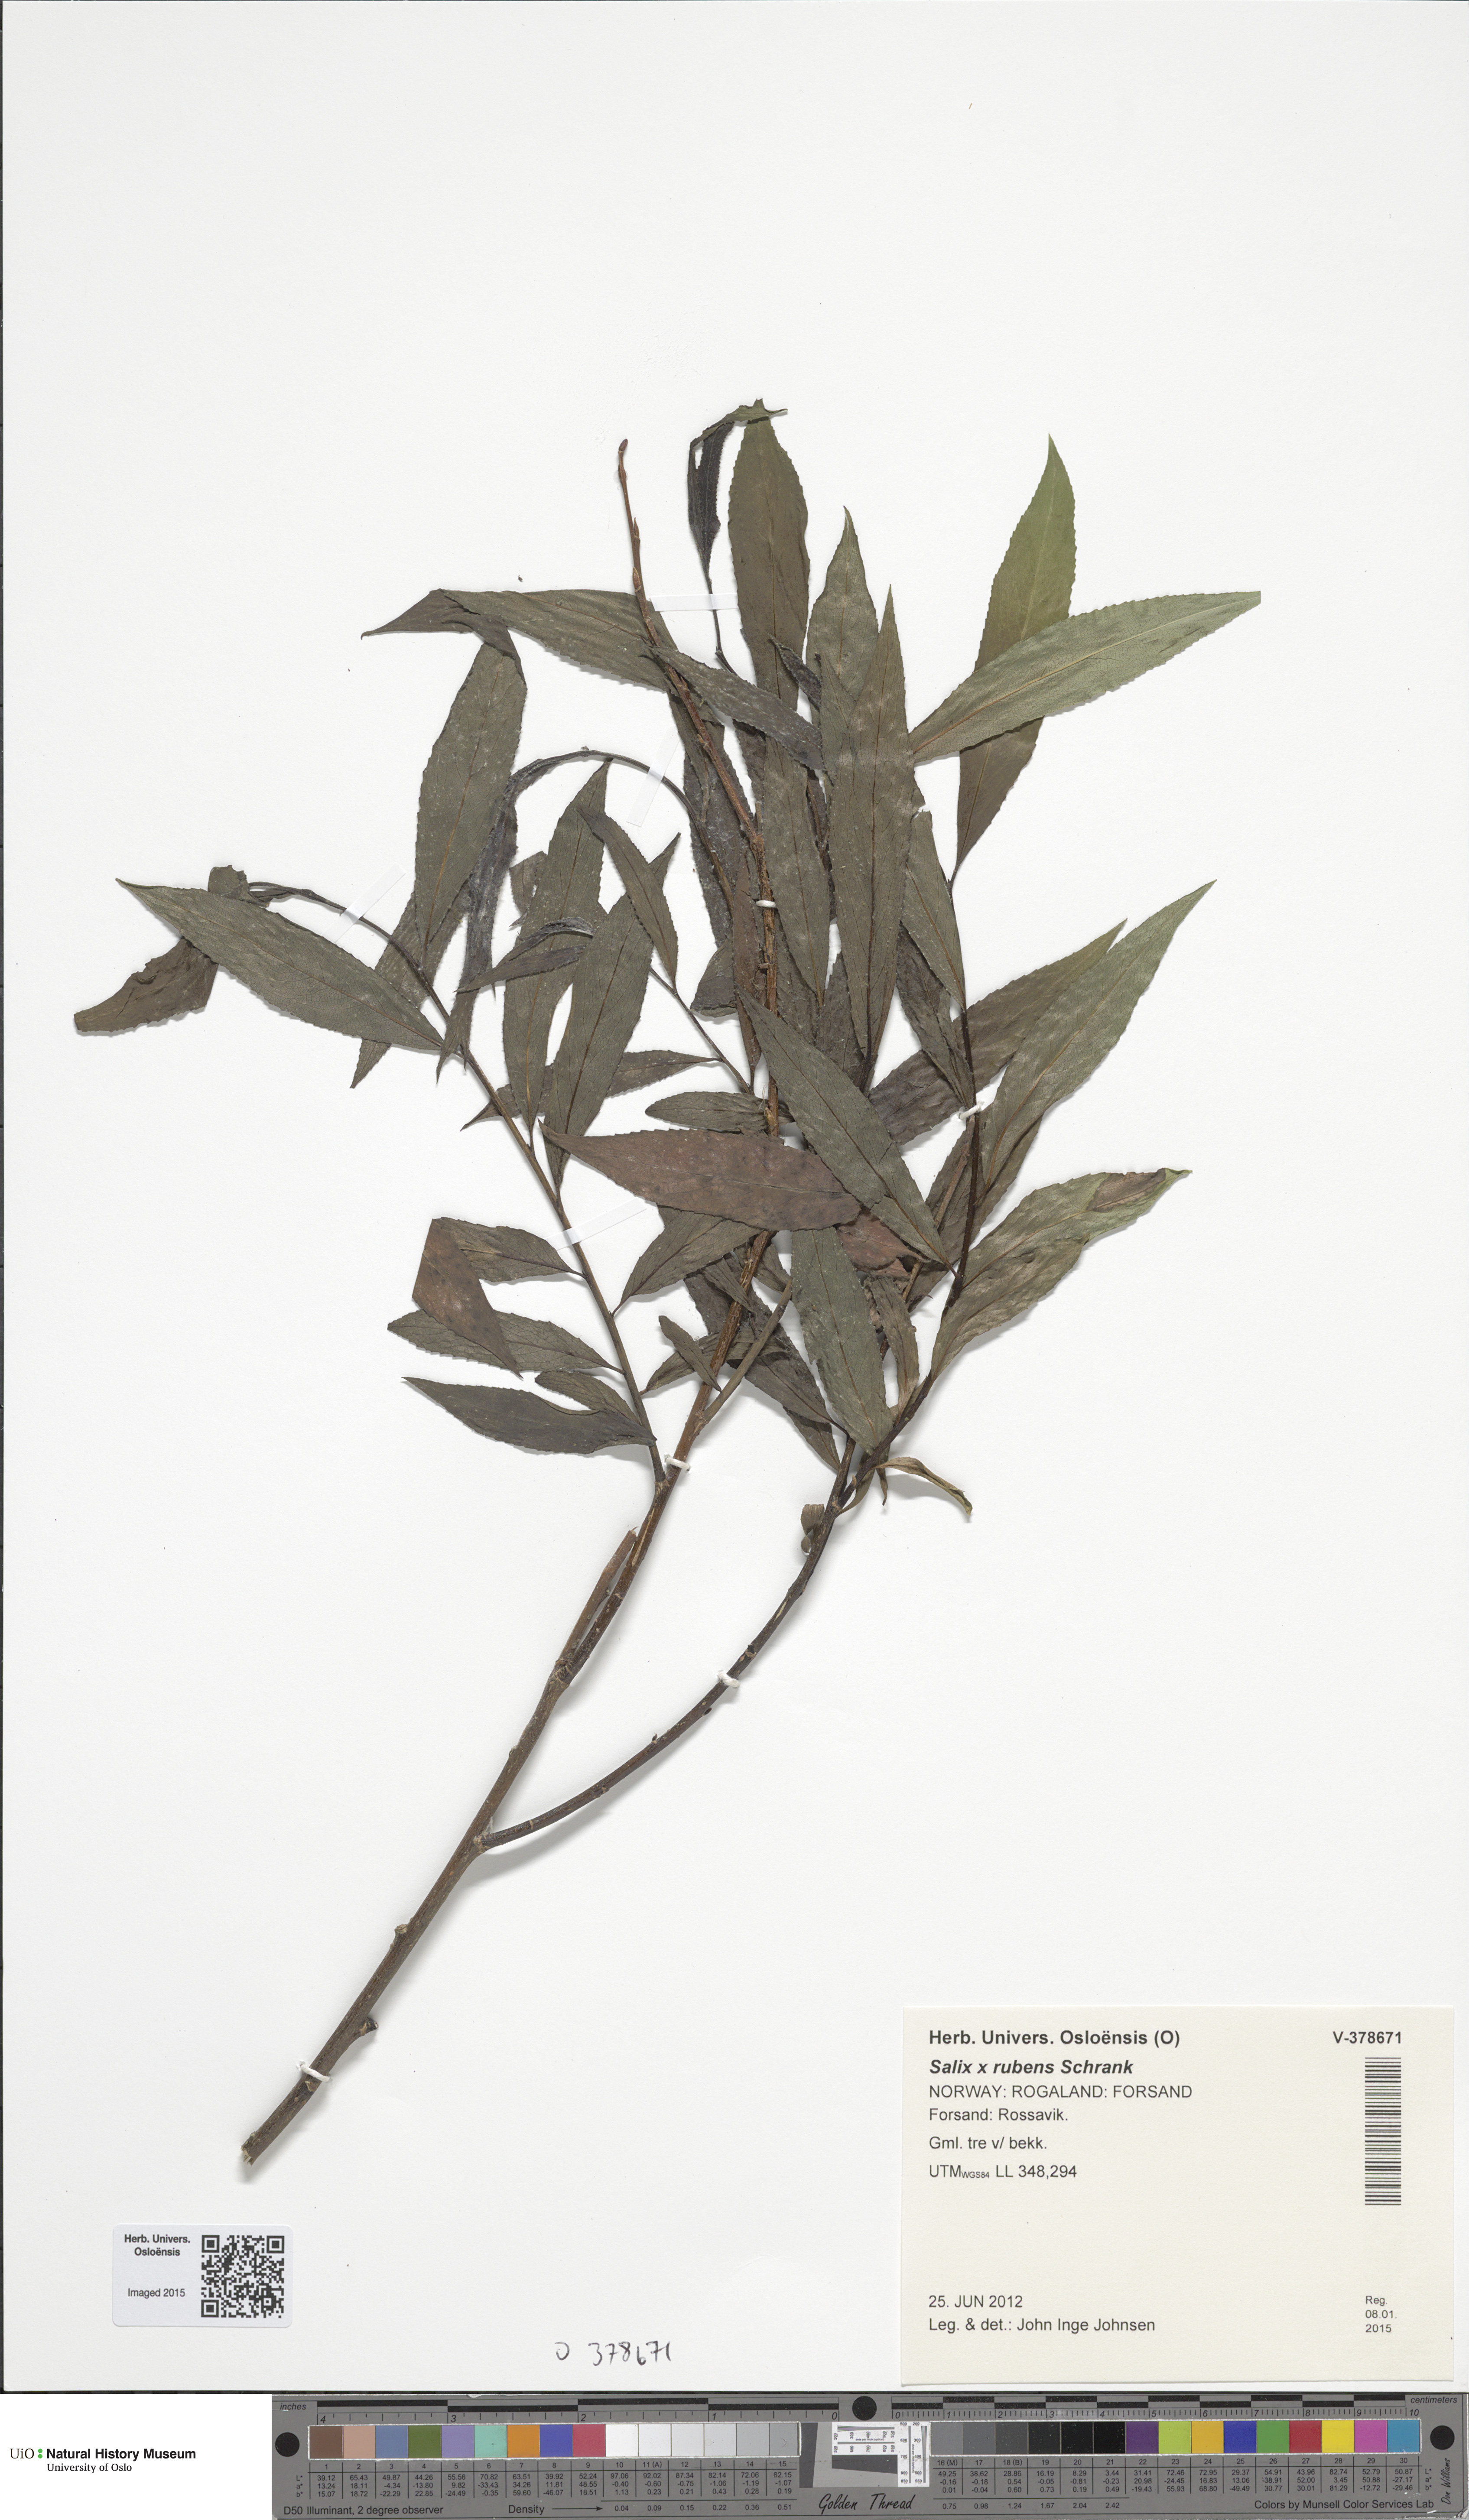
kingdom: Plantae
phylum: Tracheophyta
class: Magnoliopsida
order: Malpighiales
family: Salicaceae
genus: Salix
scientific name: Salix fragilis
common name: Crack willow
